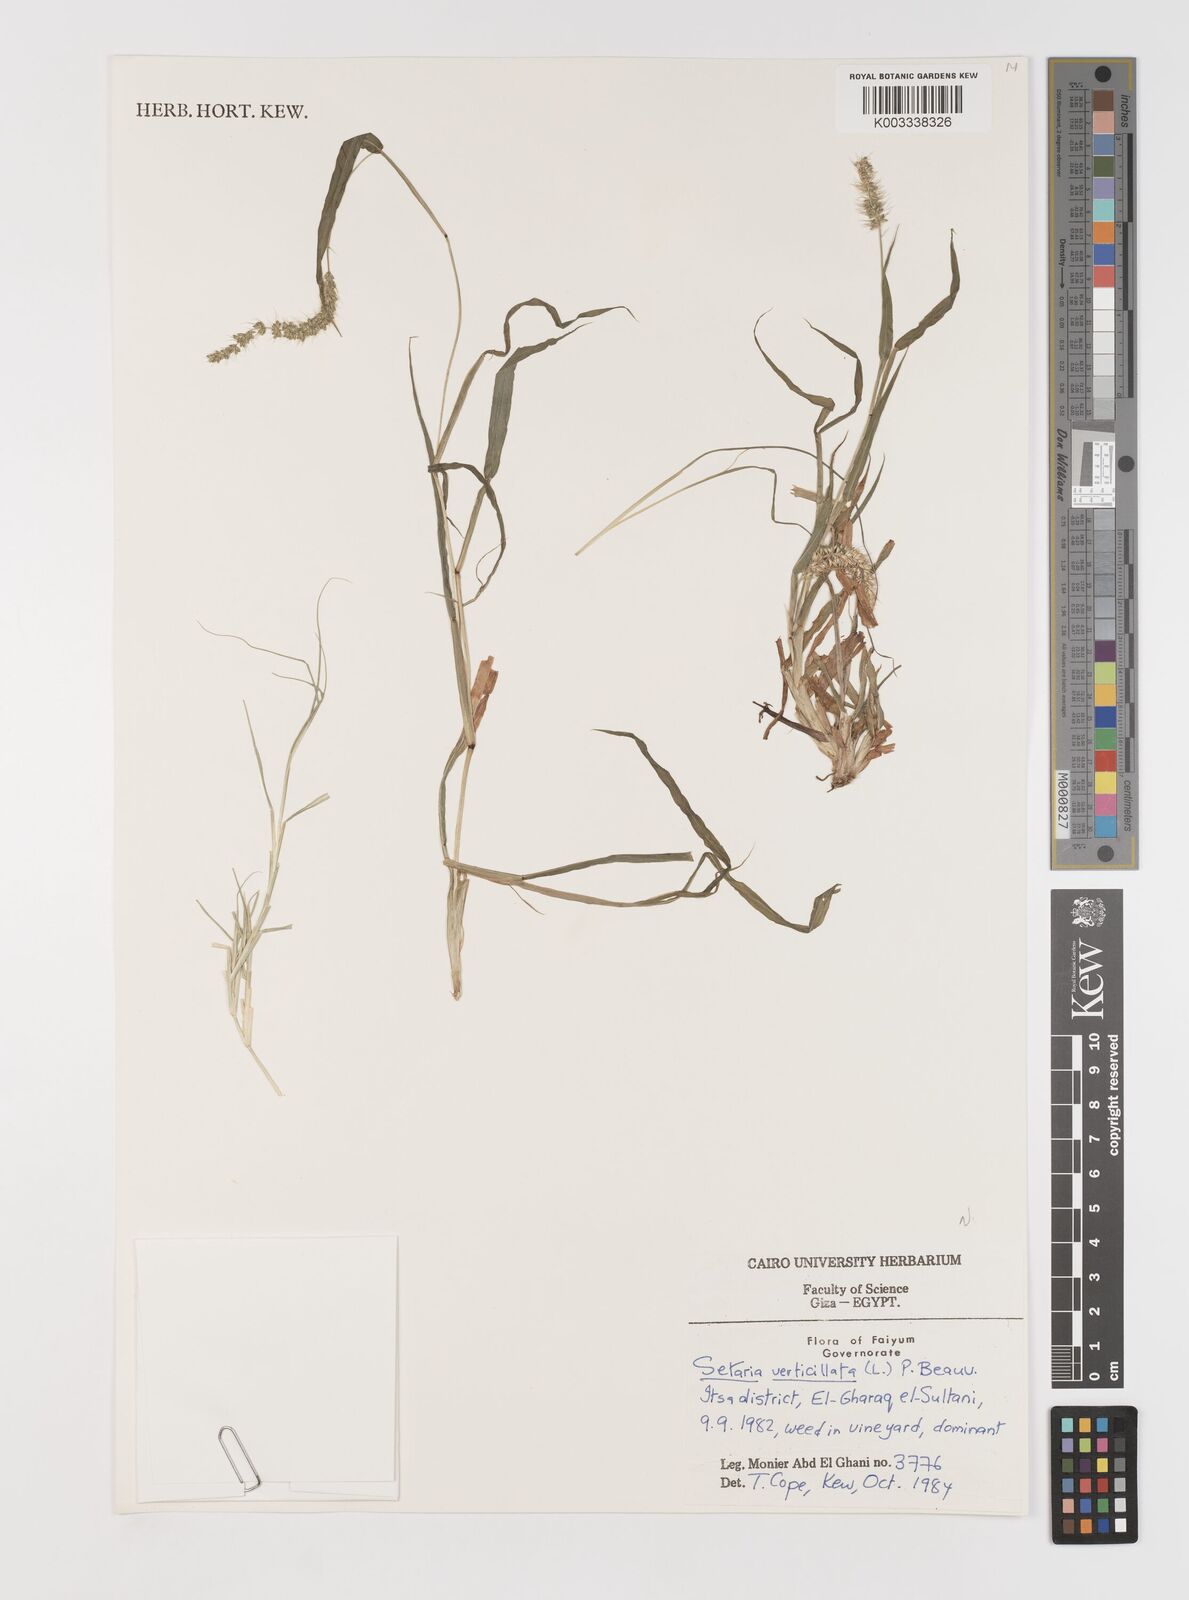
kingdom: Plantae
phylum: Tracheophyta
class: Liliopsida
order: Poales
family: Poaceae
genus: Setaria
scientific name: Setaria verticillata
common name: Hooked bristlegrass
